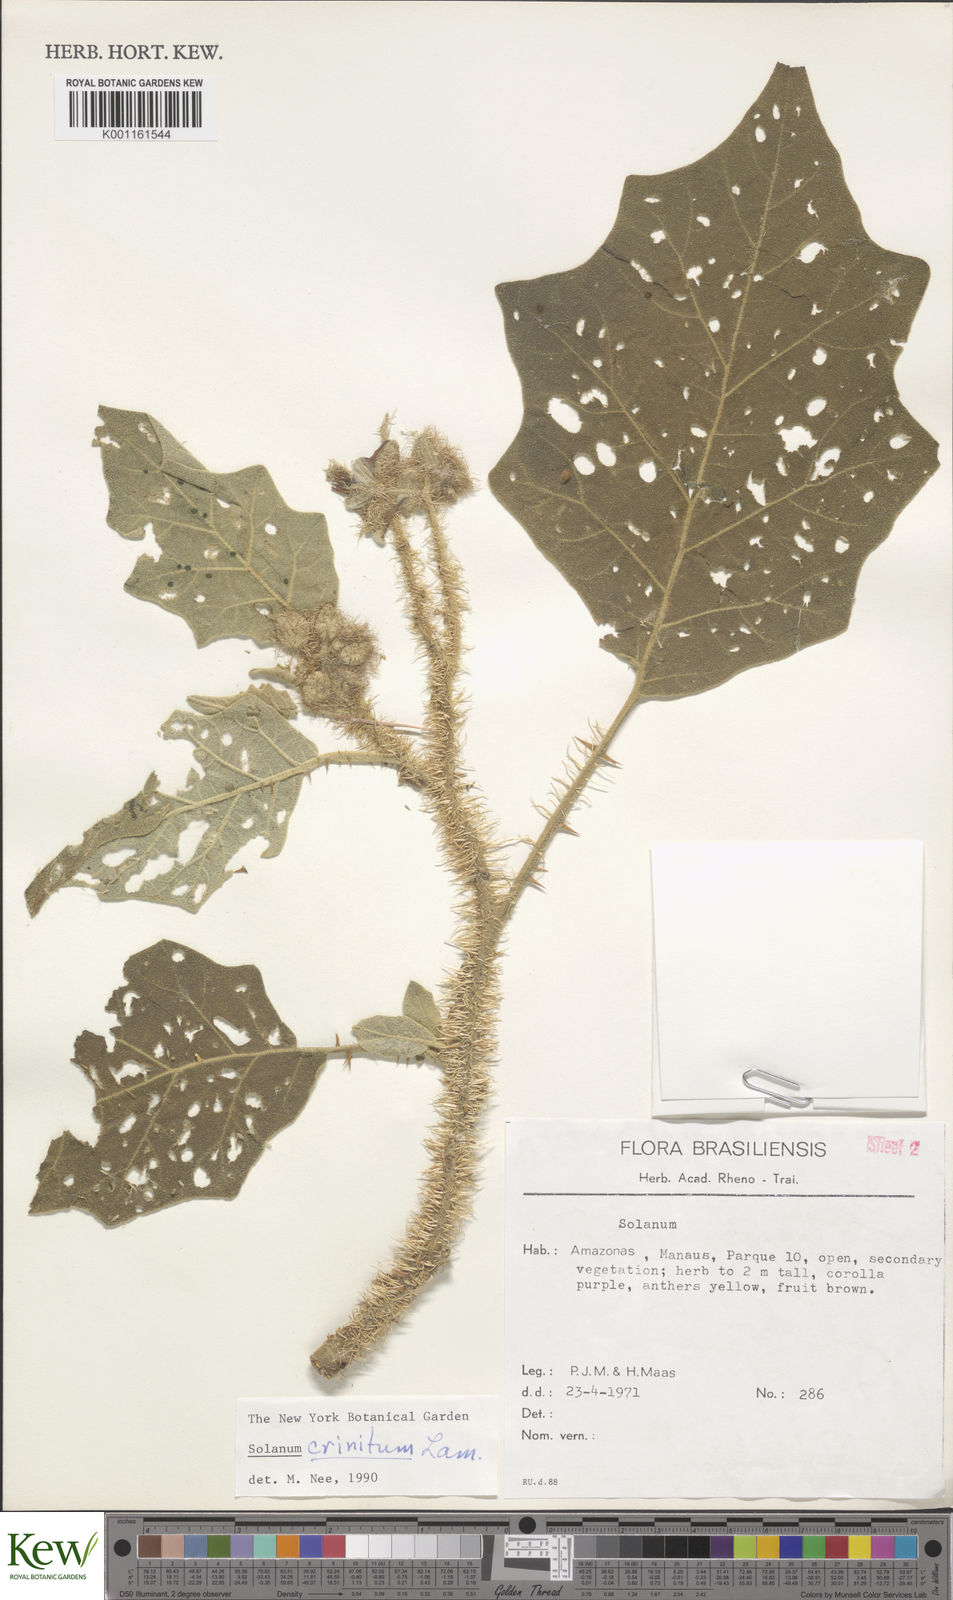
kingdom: Plantae
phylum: Tracheophyta
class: Magnoliopsida
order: Solanales
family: Solanaceae
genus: Solanum
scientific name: Solanum crinitum
